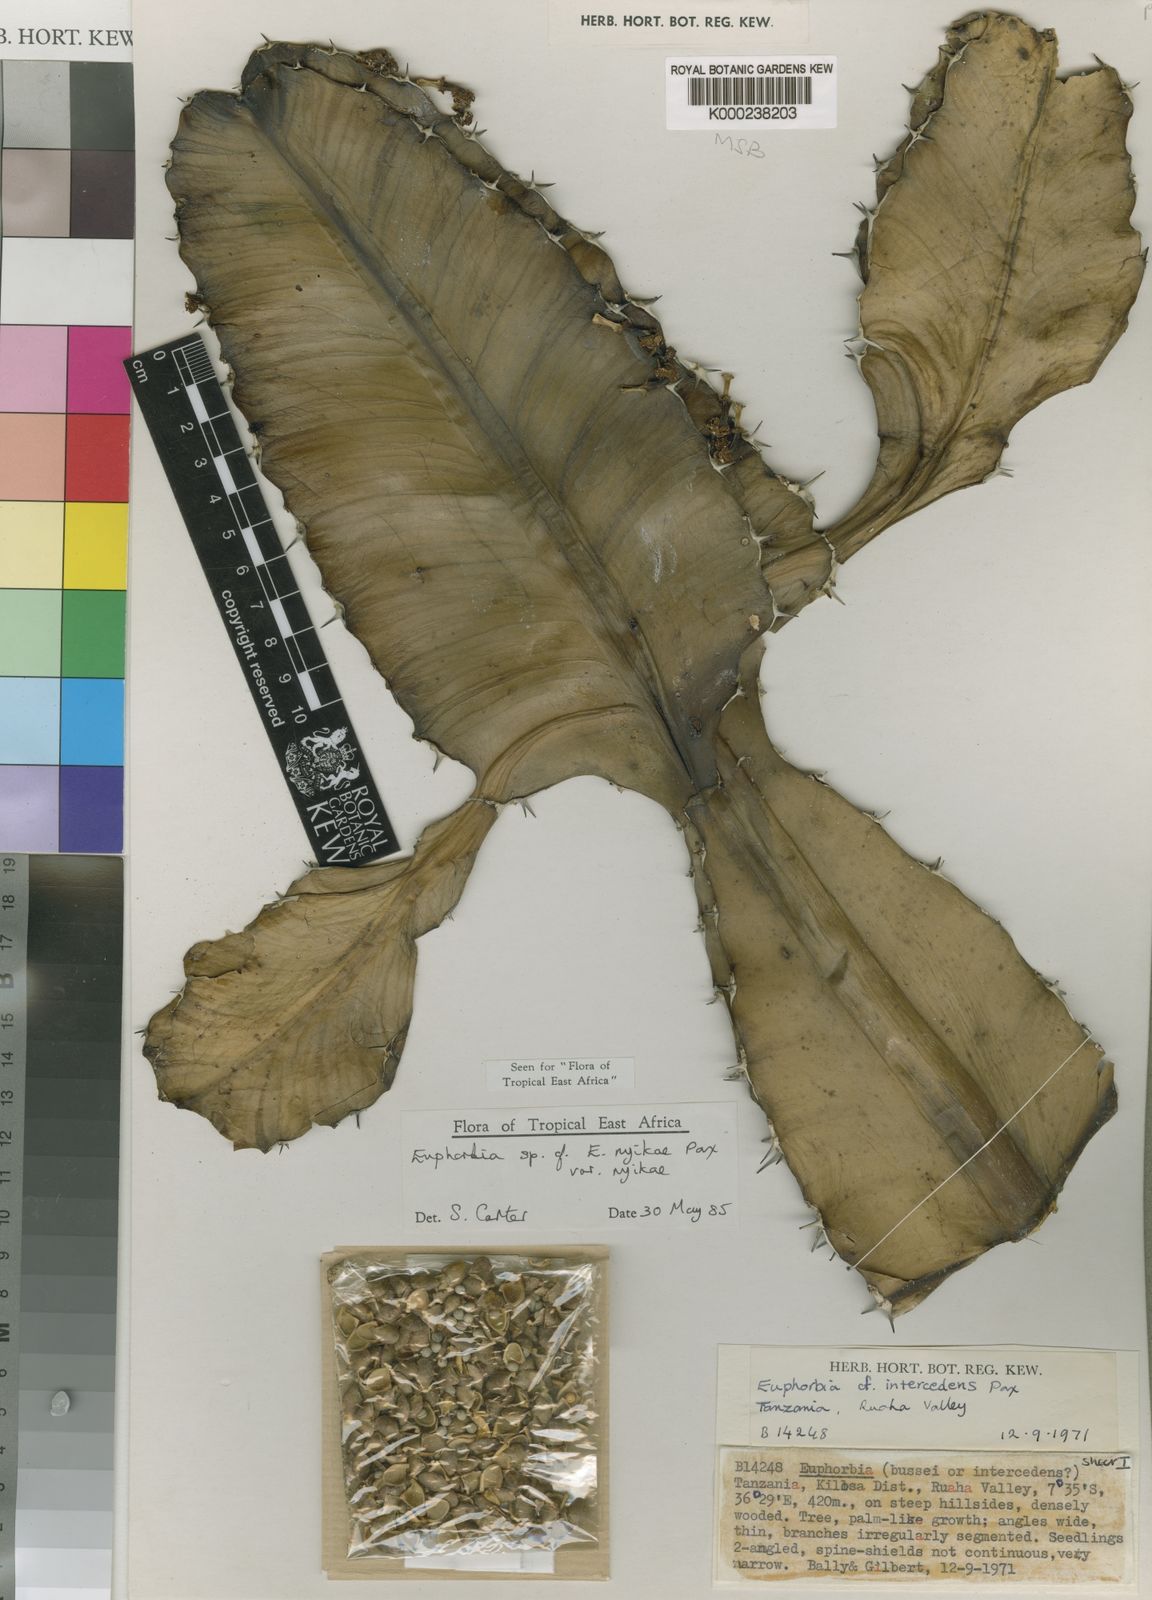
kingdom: Plantae
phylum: Tracheophyta
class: Magnoliopsida
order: Malpighiales
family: Euphorbiaceae
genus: Euphorbia
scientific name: Euphorbia nyikae
